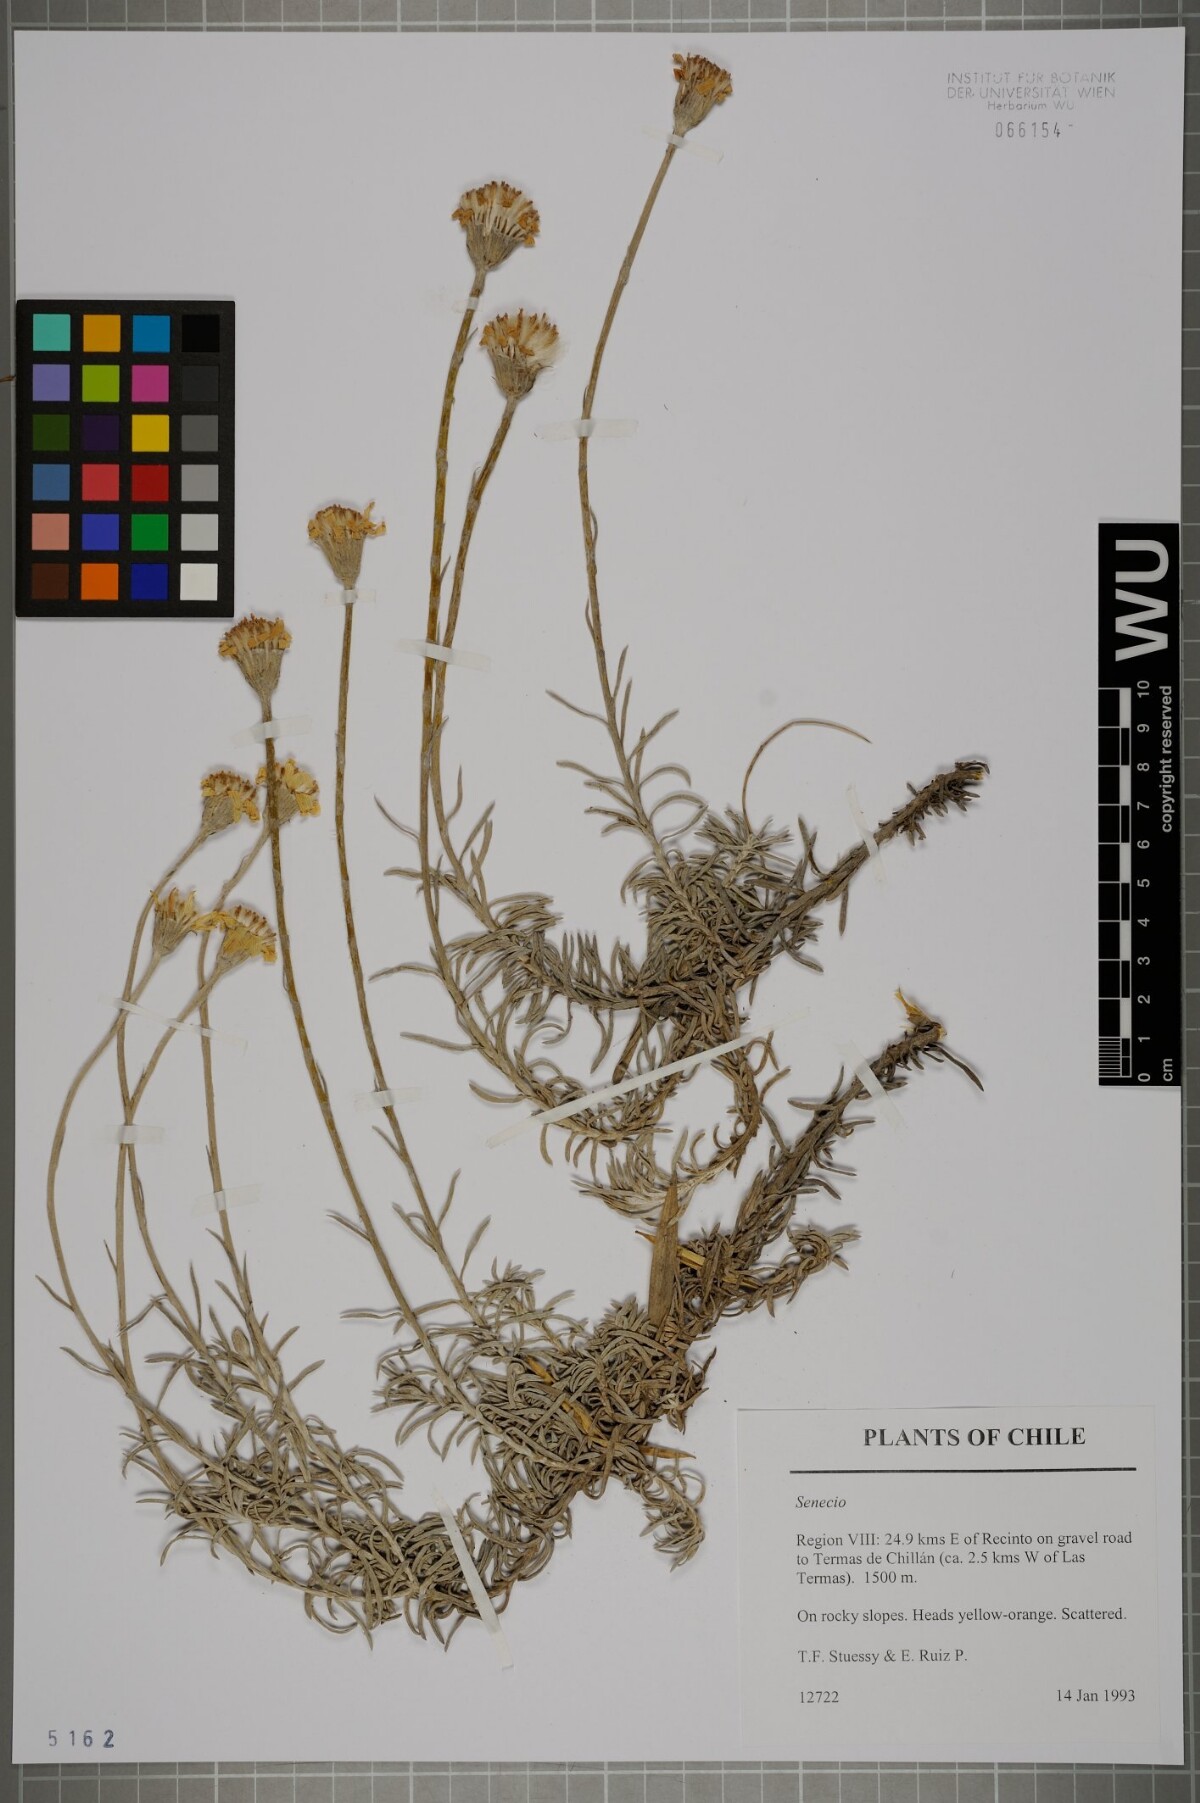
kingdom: Plantae
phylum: Tracheophyta
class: Magnoliopsida
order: Asterales
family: Asteraceae
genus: Senecio
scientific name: Senecio
